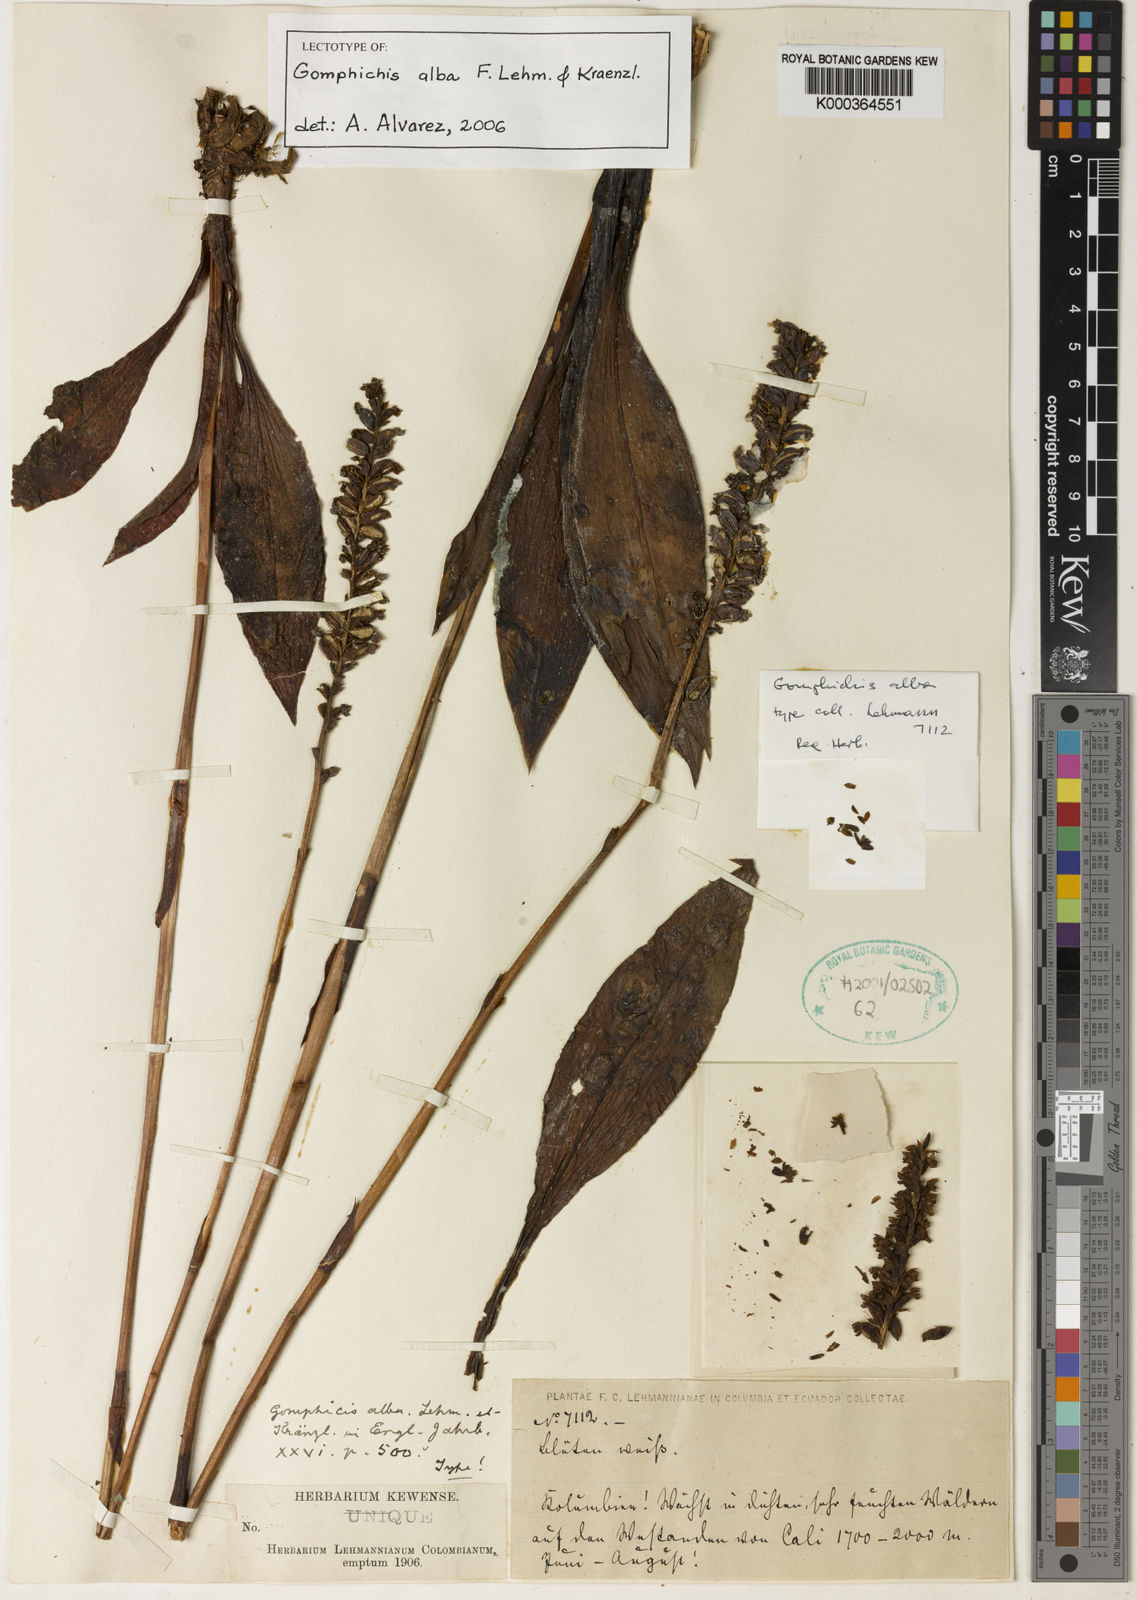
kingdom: Plantae
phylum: Tracheophyta
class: Liliopsida
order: Asparagales
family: Orchidaceae
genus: Gomphichis
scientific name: Gomphichis alba
